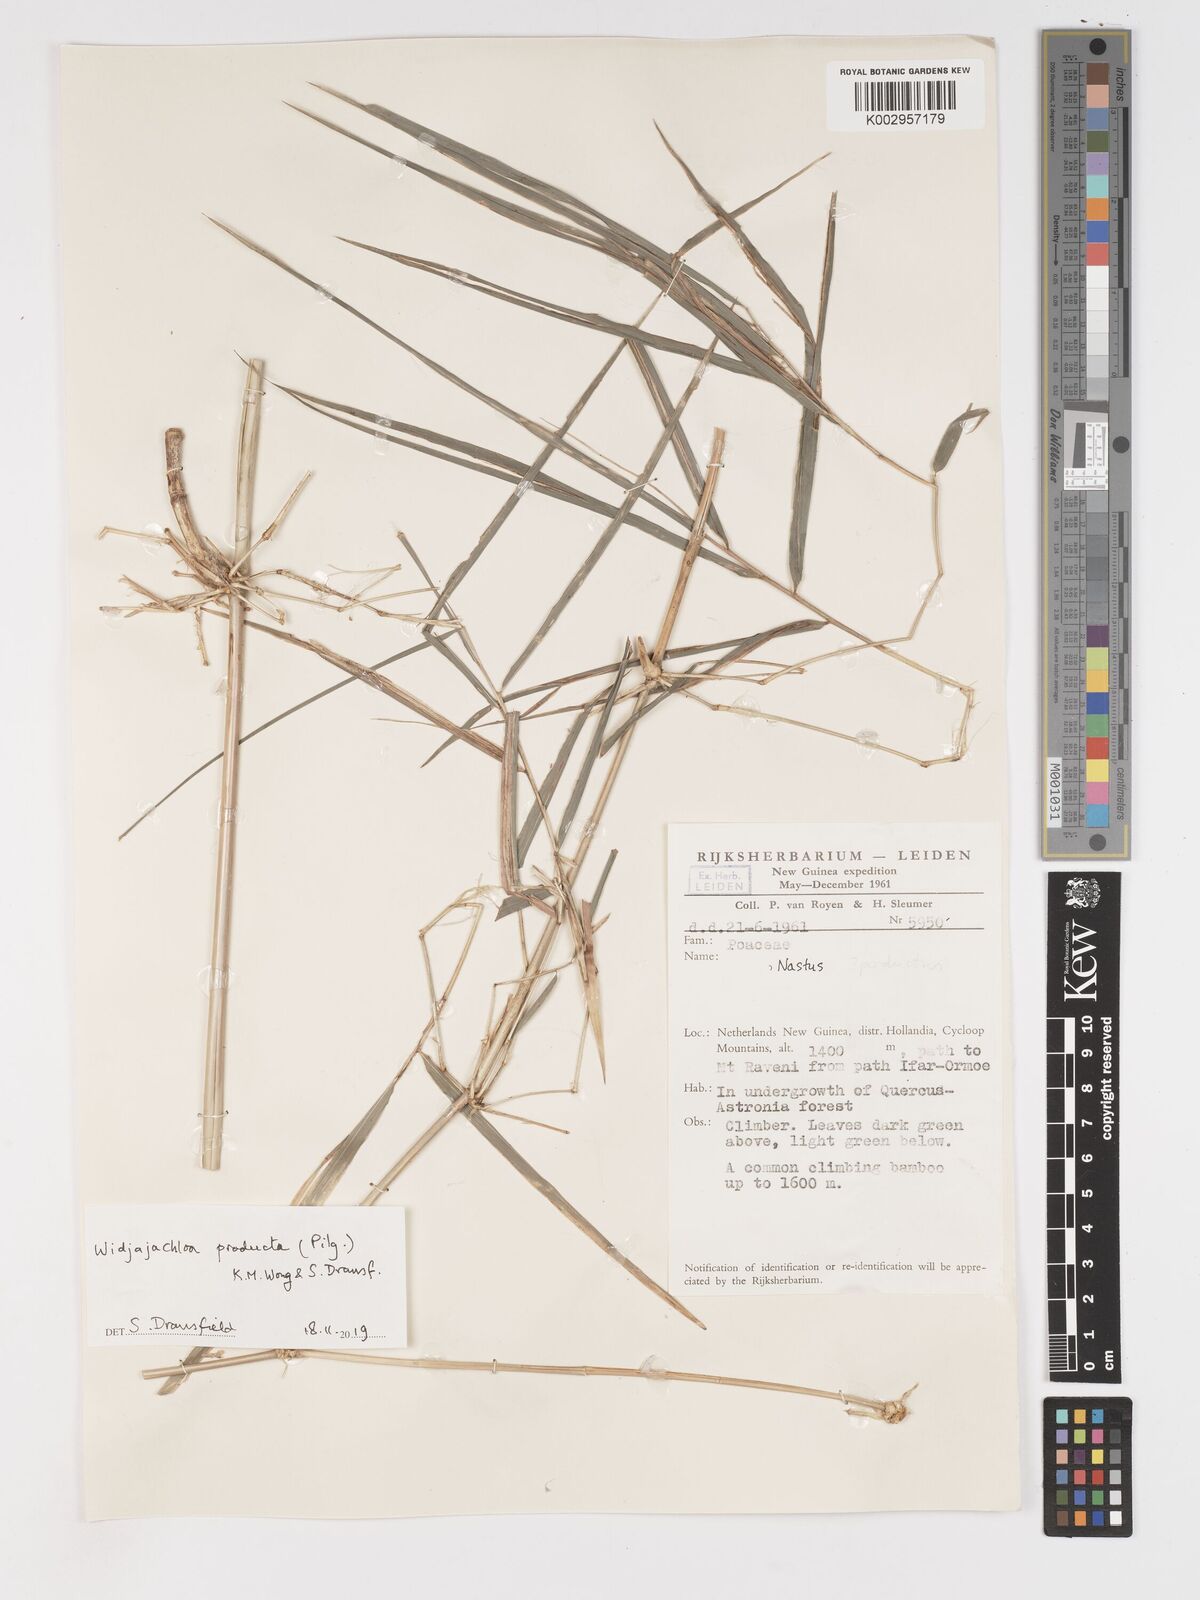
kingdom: Plantae
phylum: Tracheophyta
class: Liliopsida
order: Poales
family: Poaceae
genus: Widjajachloa
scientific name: Widjajachloa producta
